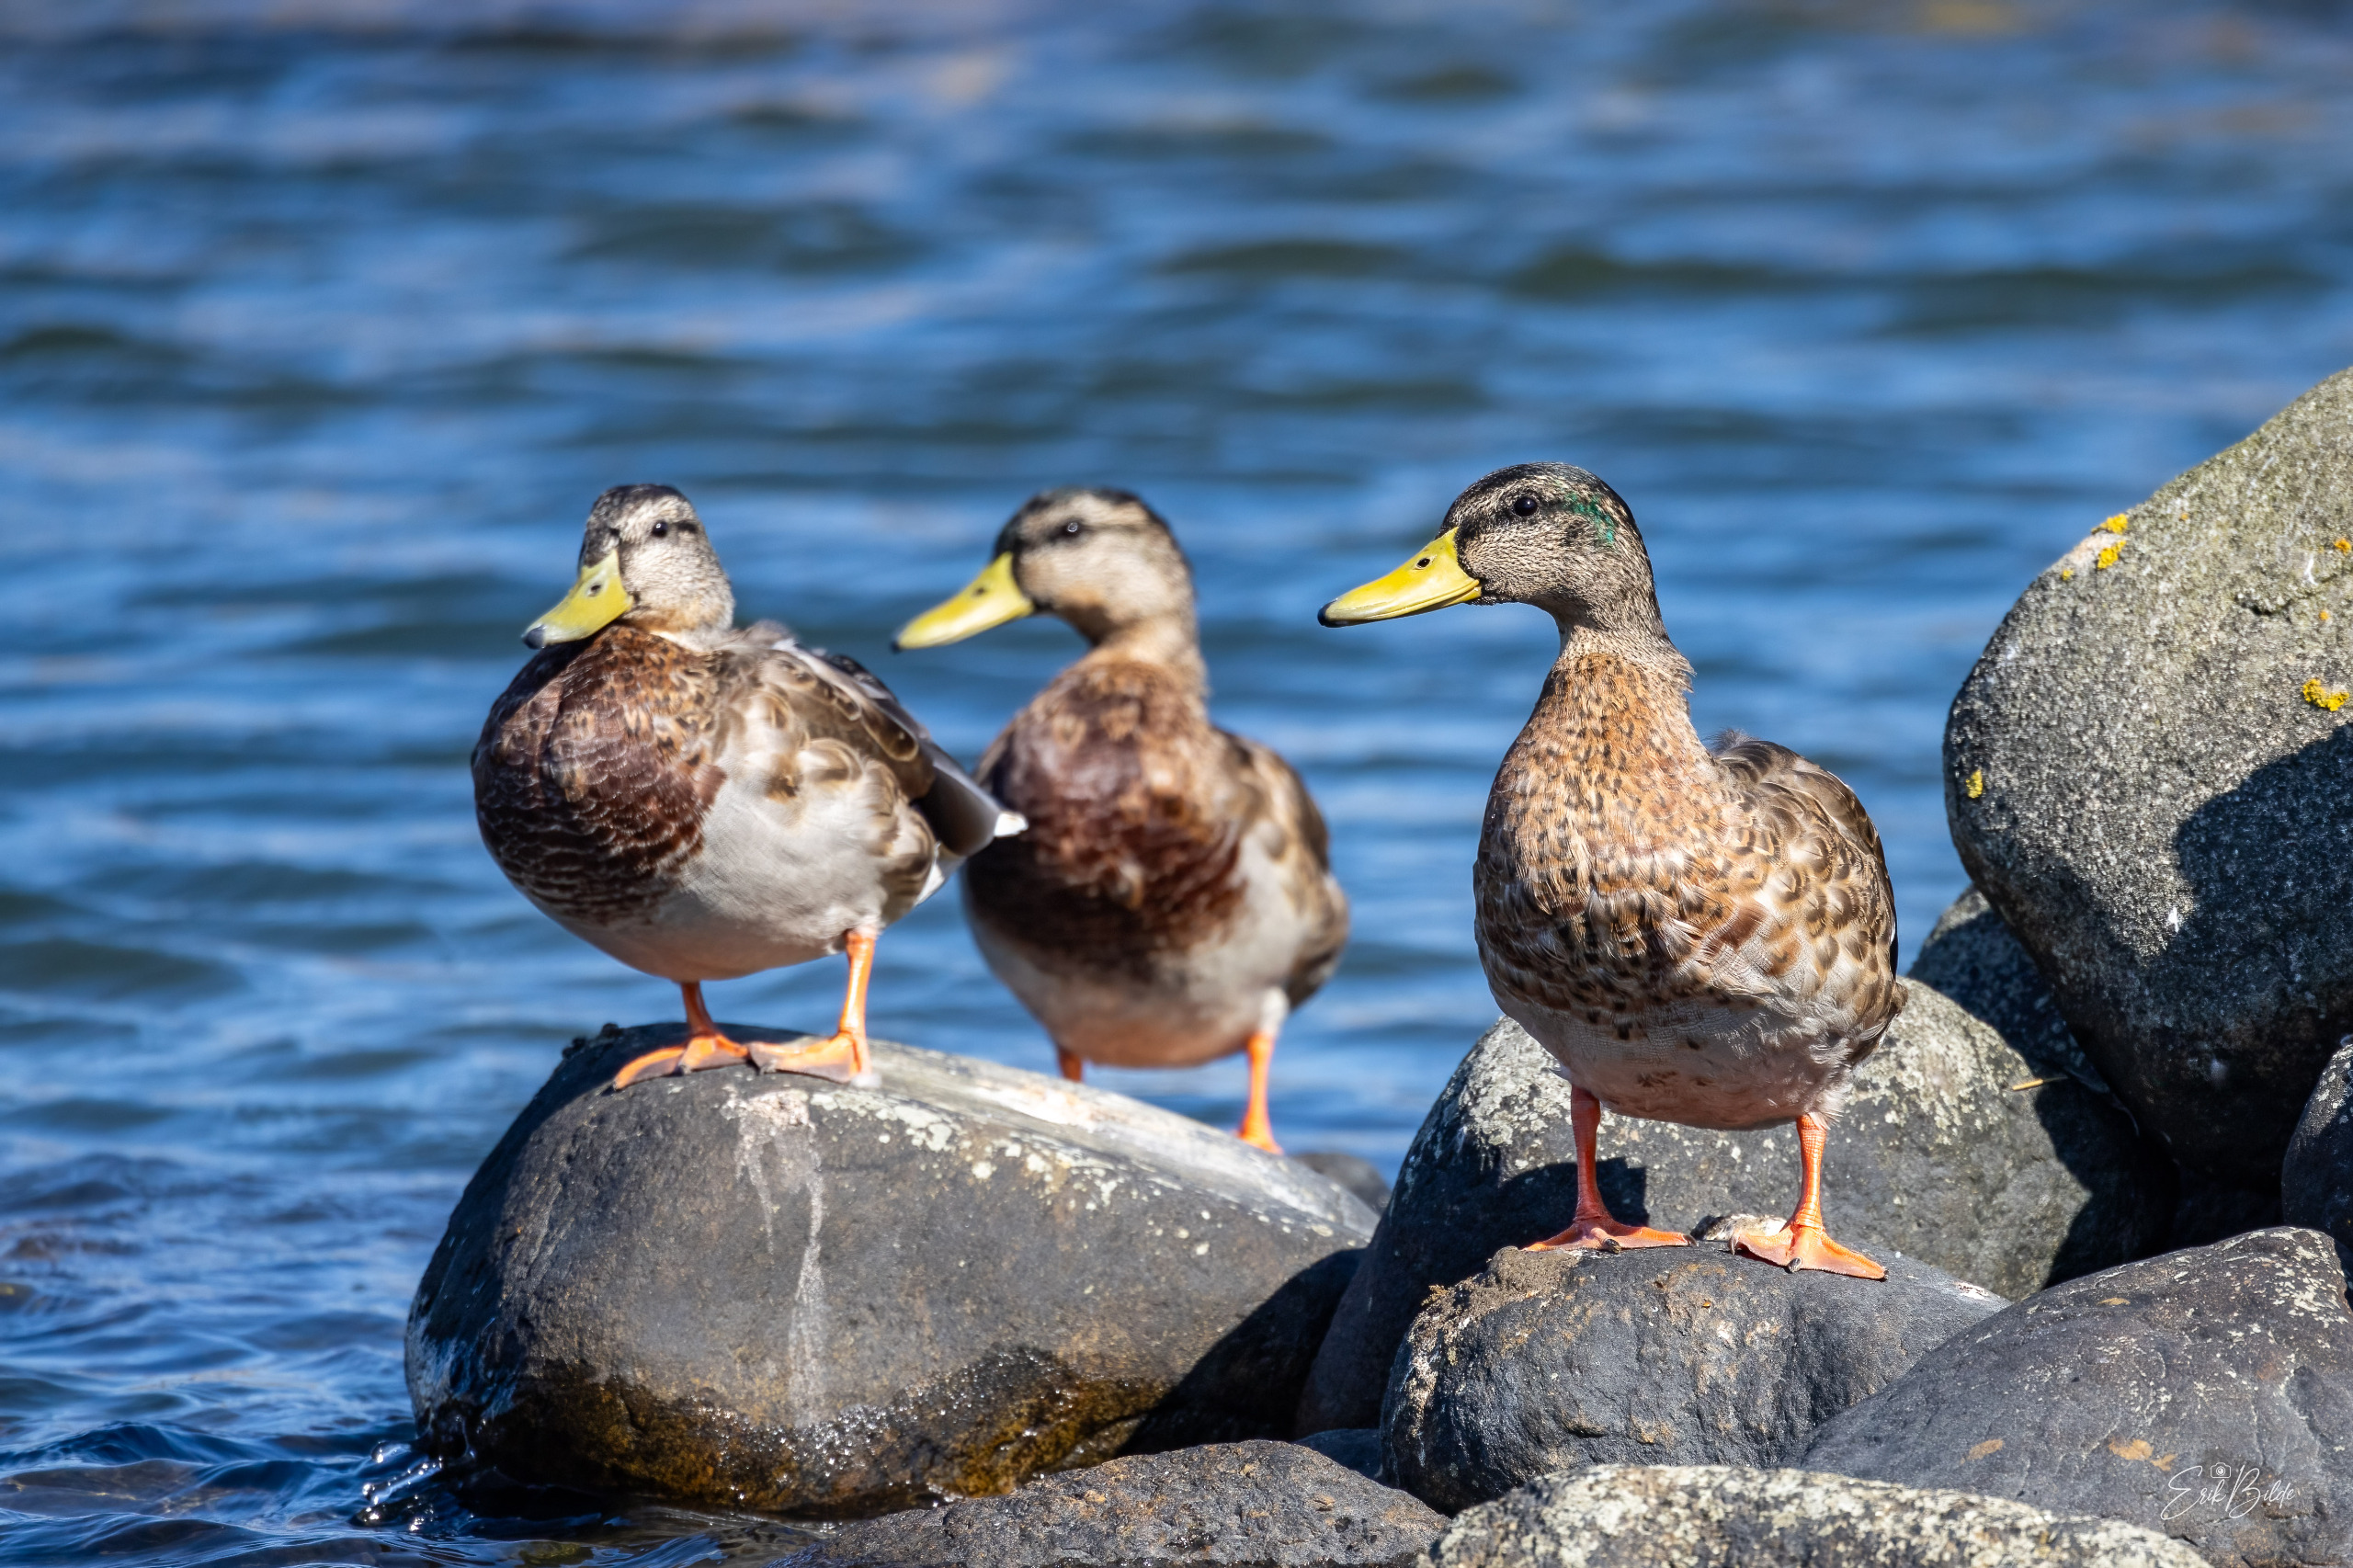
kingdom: Animalia
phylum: Chordata
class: Aves
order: Anseriformes
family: Anatidae
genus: Anas
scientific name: Anas platyrhynchos
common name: Gråand
